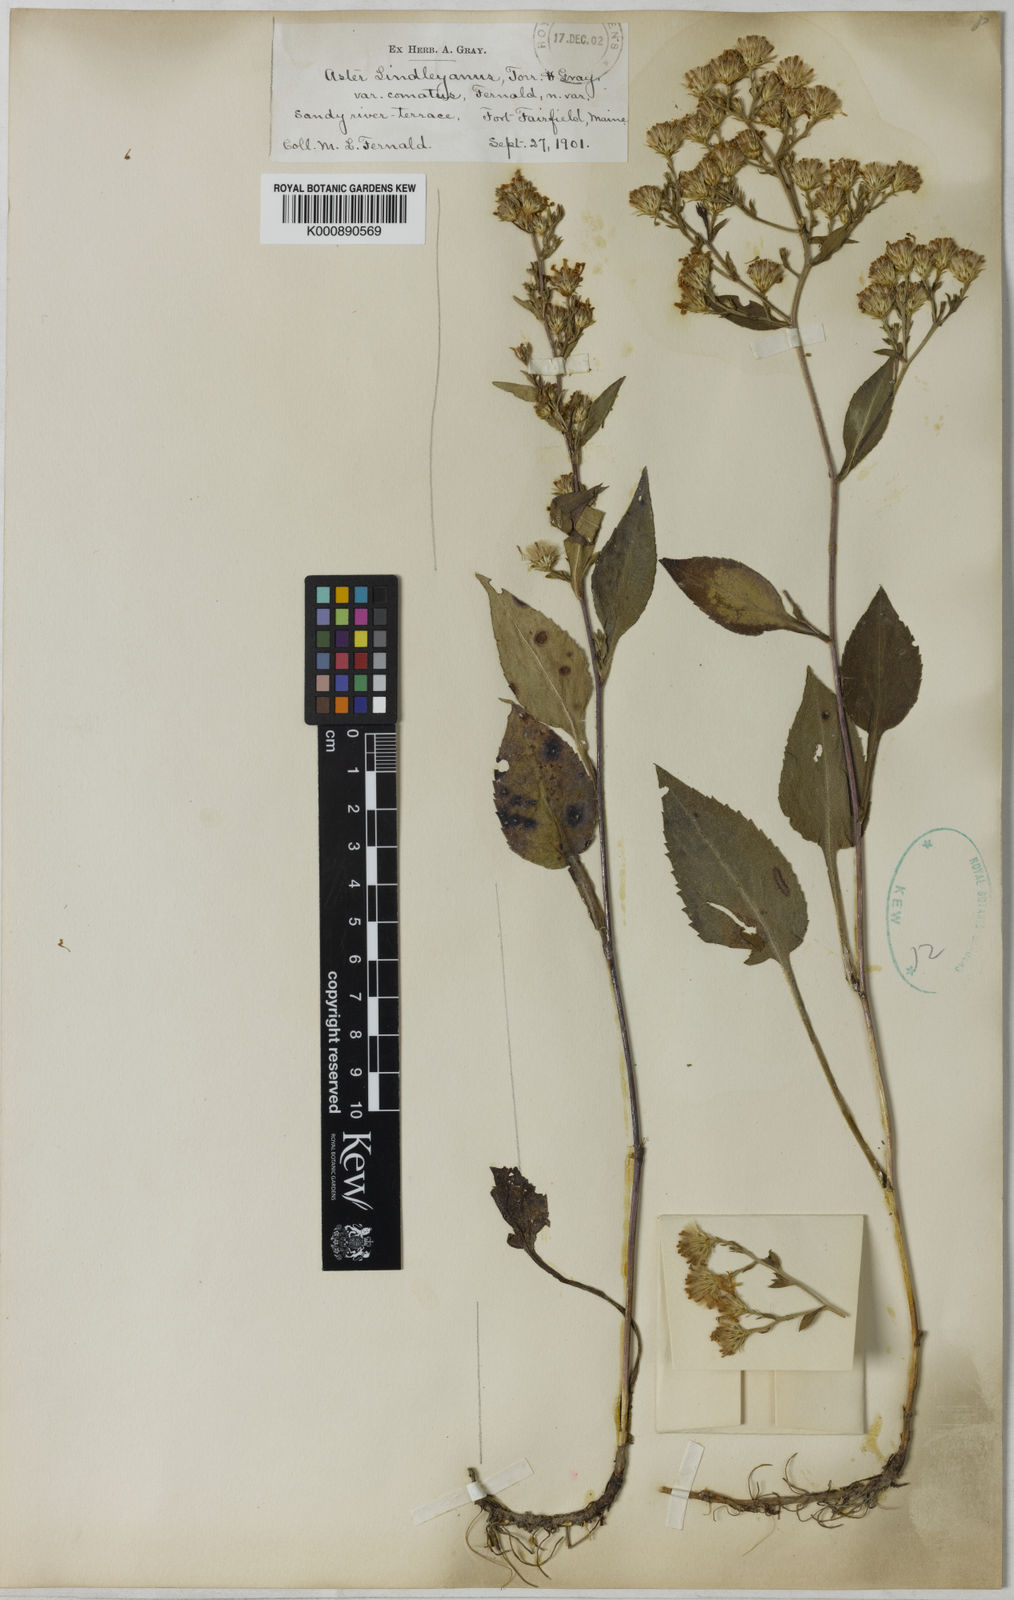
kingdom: Plantae
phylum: Tracheophyta
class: Magnoliopsida
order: Asterales
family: Asteraceae
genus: Symphyotrichum
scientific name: Symphyotrichum ciliolatum
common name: Fringed blue aster
